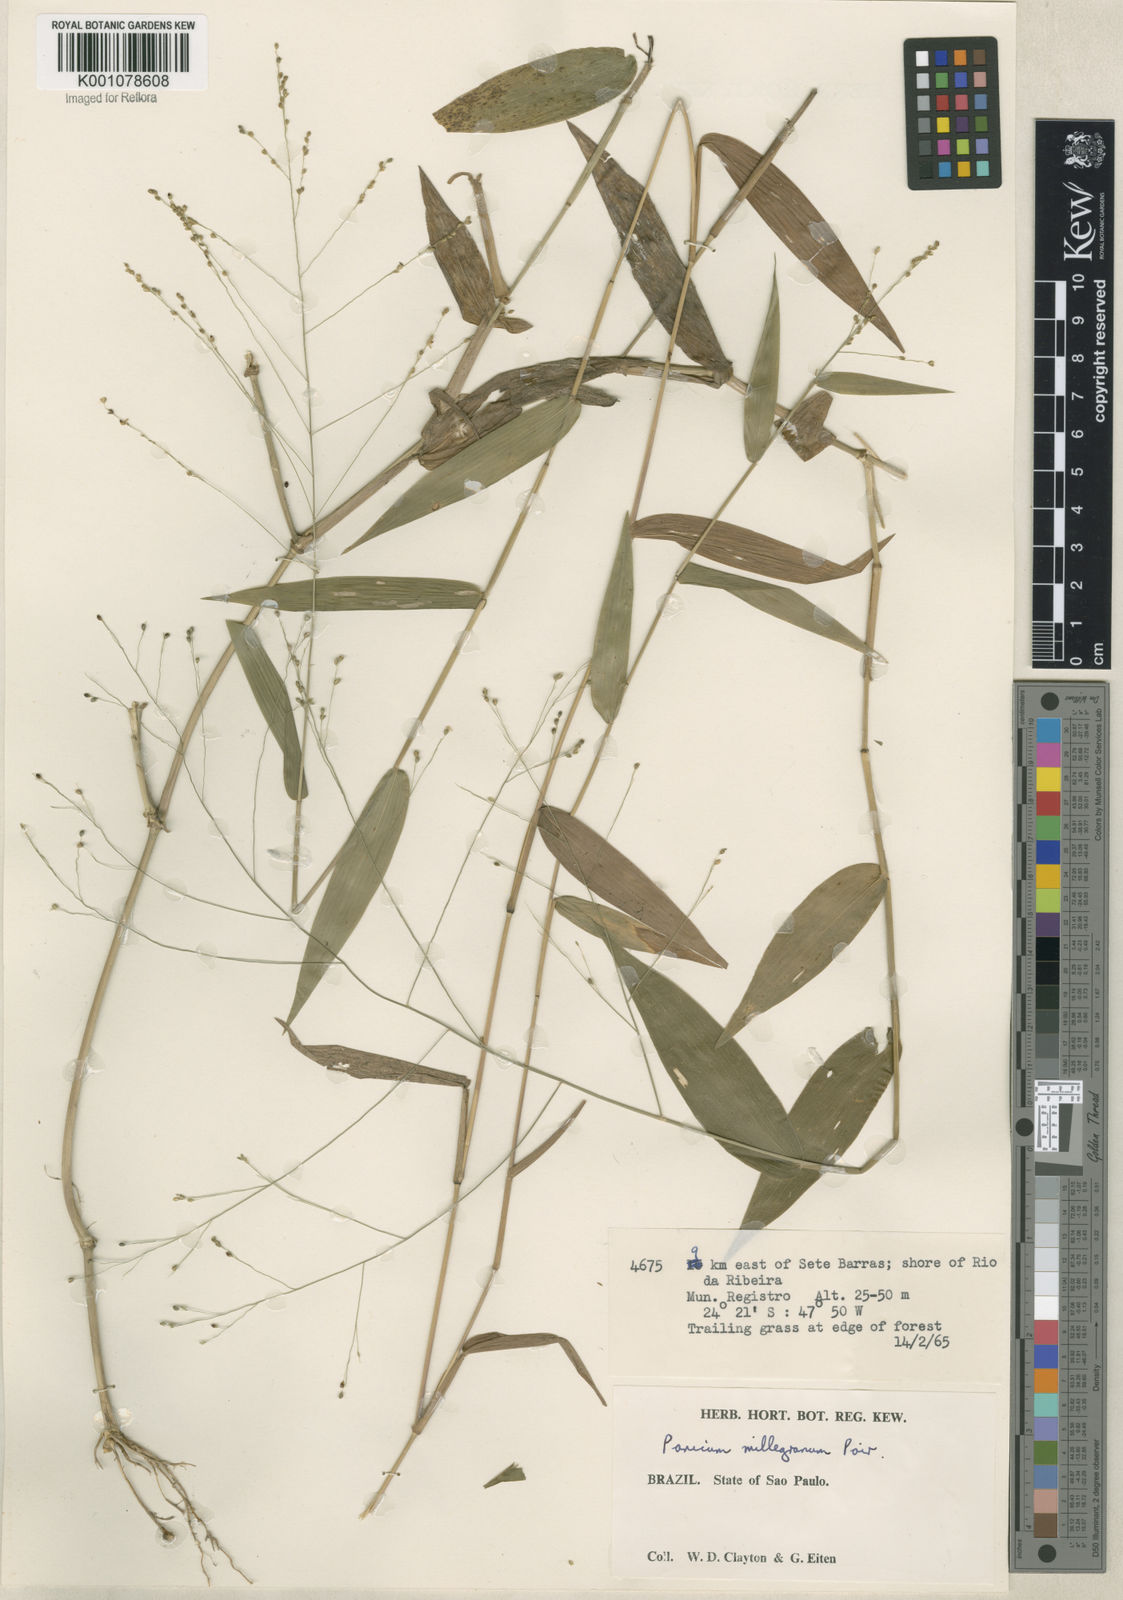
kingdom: Plantae
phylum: Tracheophyta
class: Liliopsida
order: Poales
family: Poaceae
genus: Panicum
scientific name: Panicum sellowii
